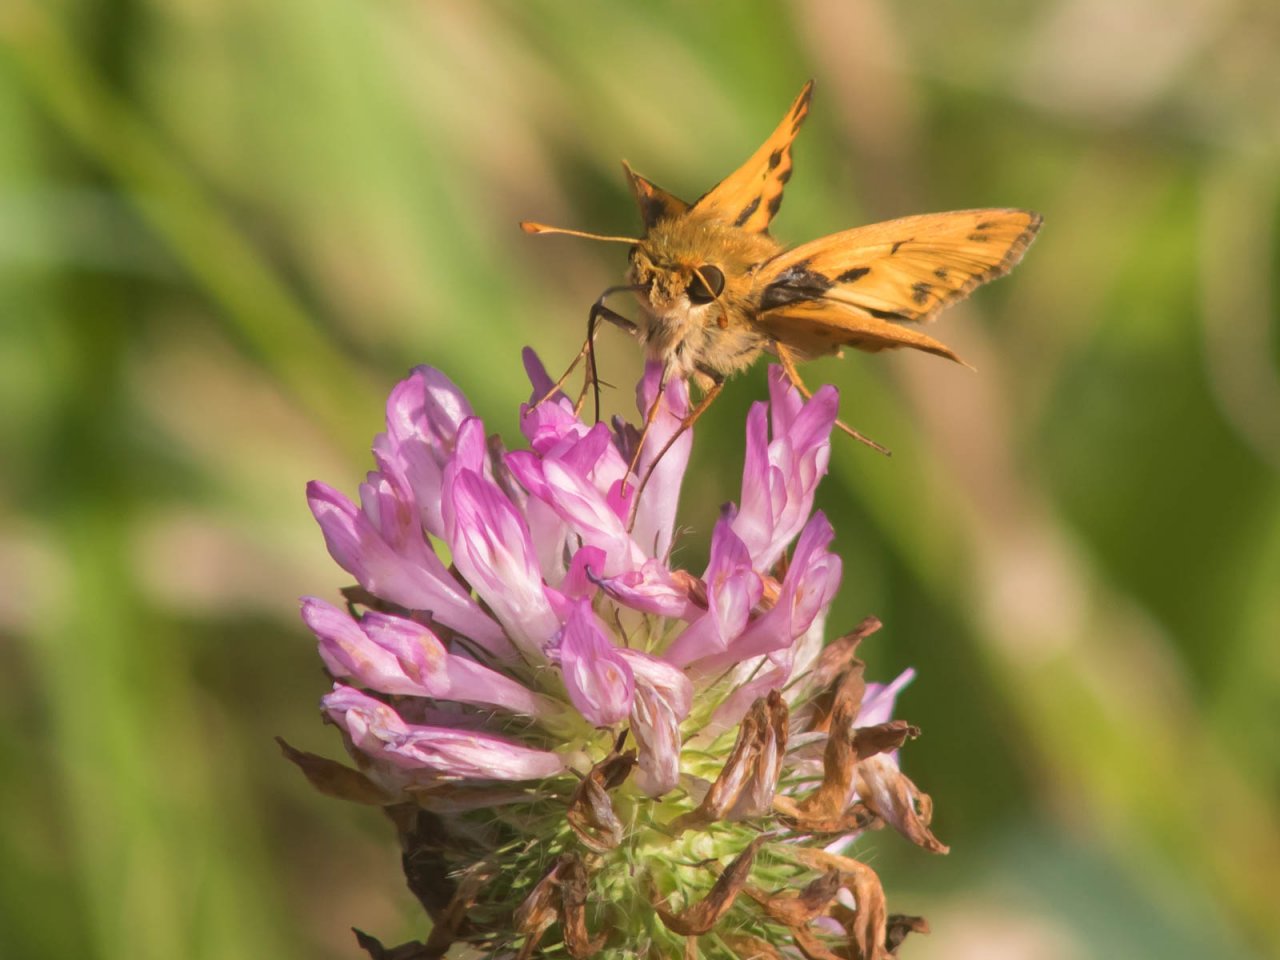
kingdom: Animalia
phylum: Arthropoda
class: Insecta
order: Lepidoptera
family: Hesperiidae
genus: Hylephila
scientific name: Hylephila phyleus
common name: Fiery Skipper
